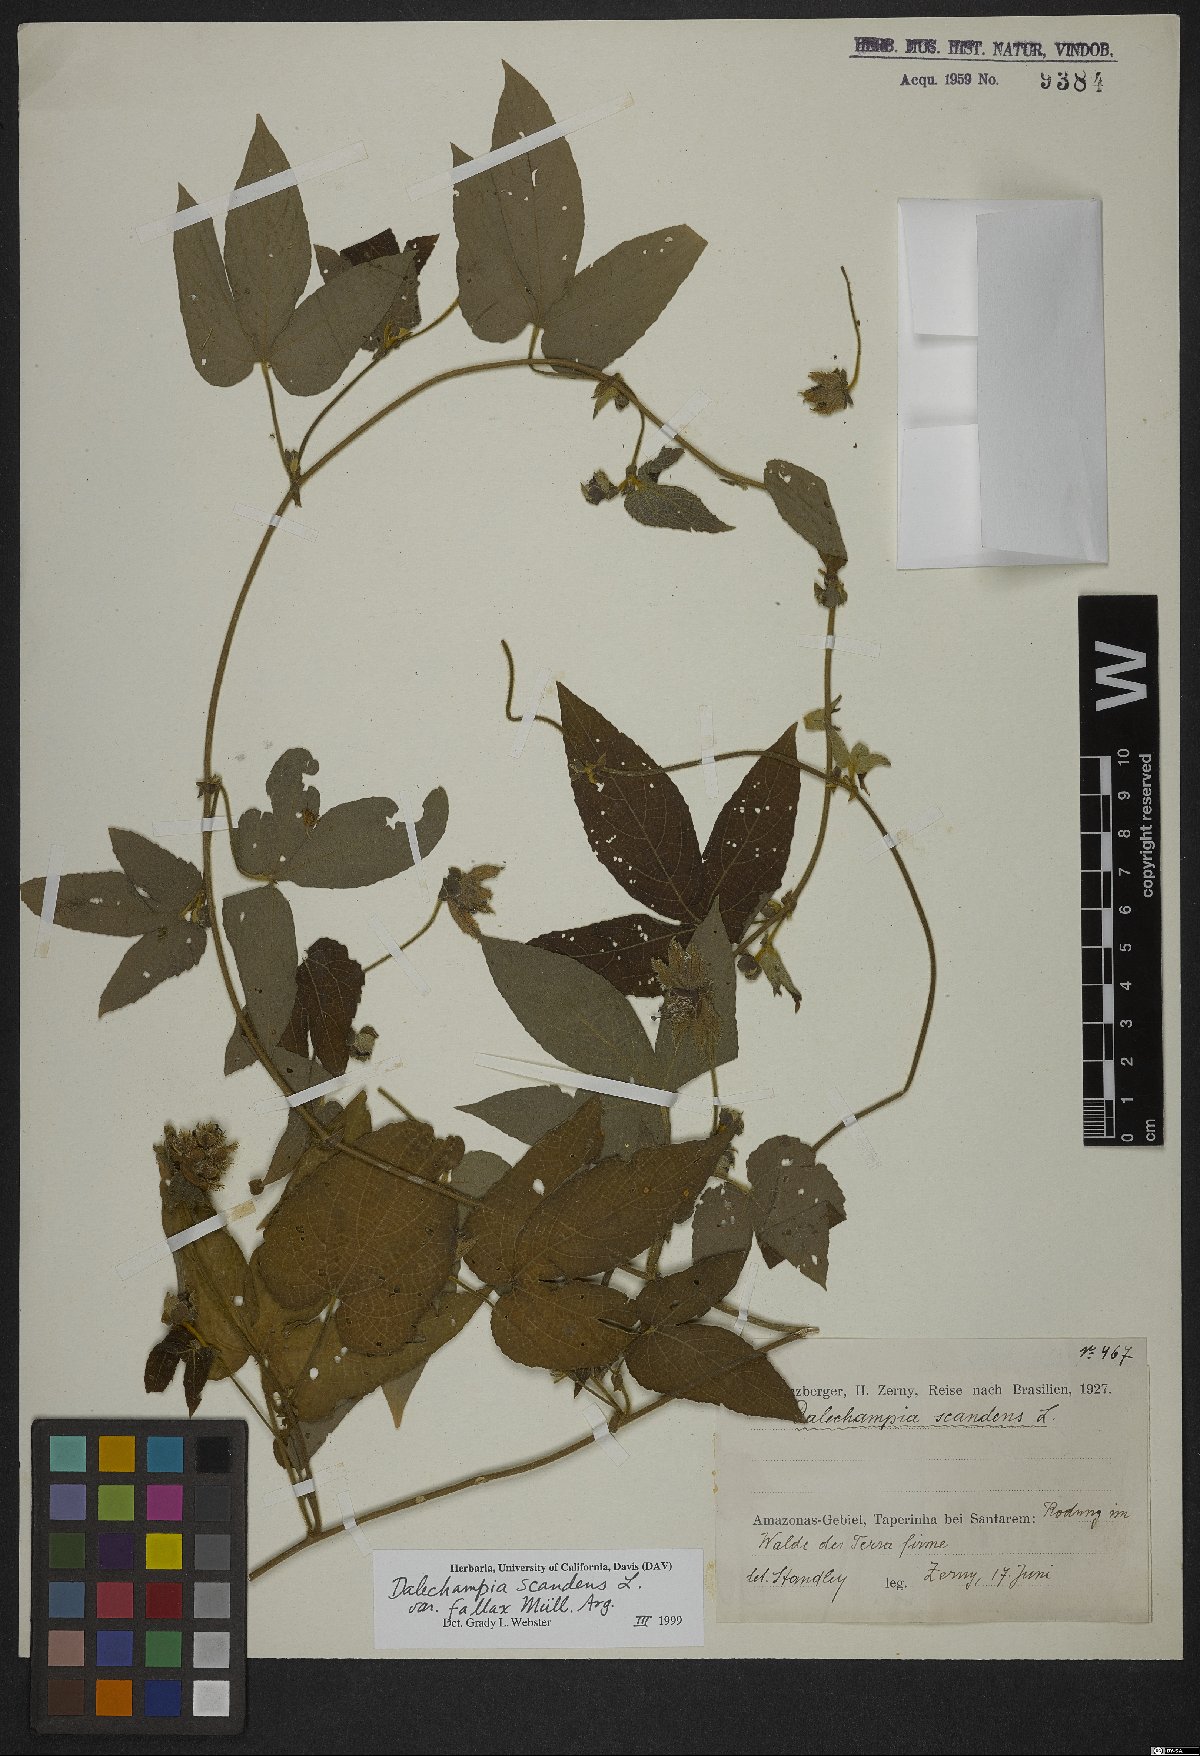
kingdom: Plantae
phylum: Tracheophyta
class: Magnoliopsida
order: Malpighiales
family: Euphorbiaceae
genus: Dalechampia
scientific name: Dalechampia scandens
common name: Spurgecreeper
